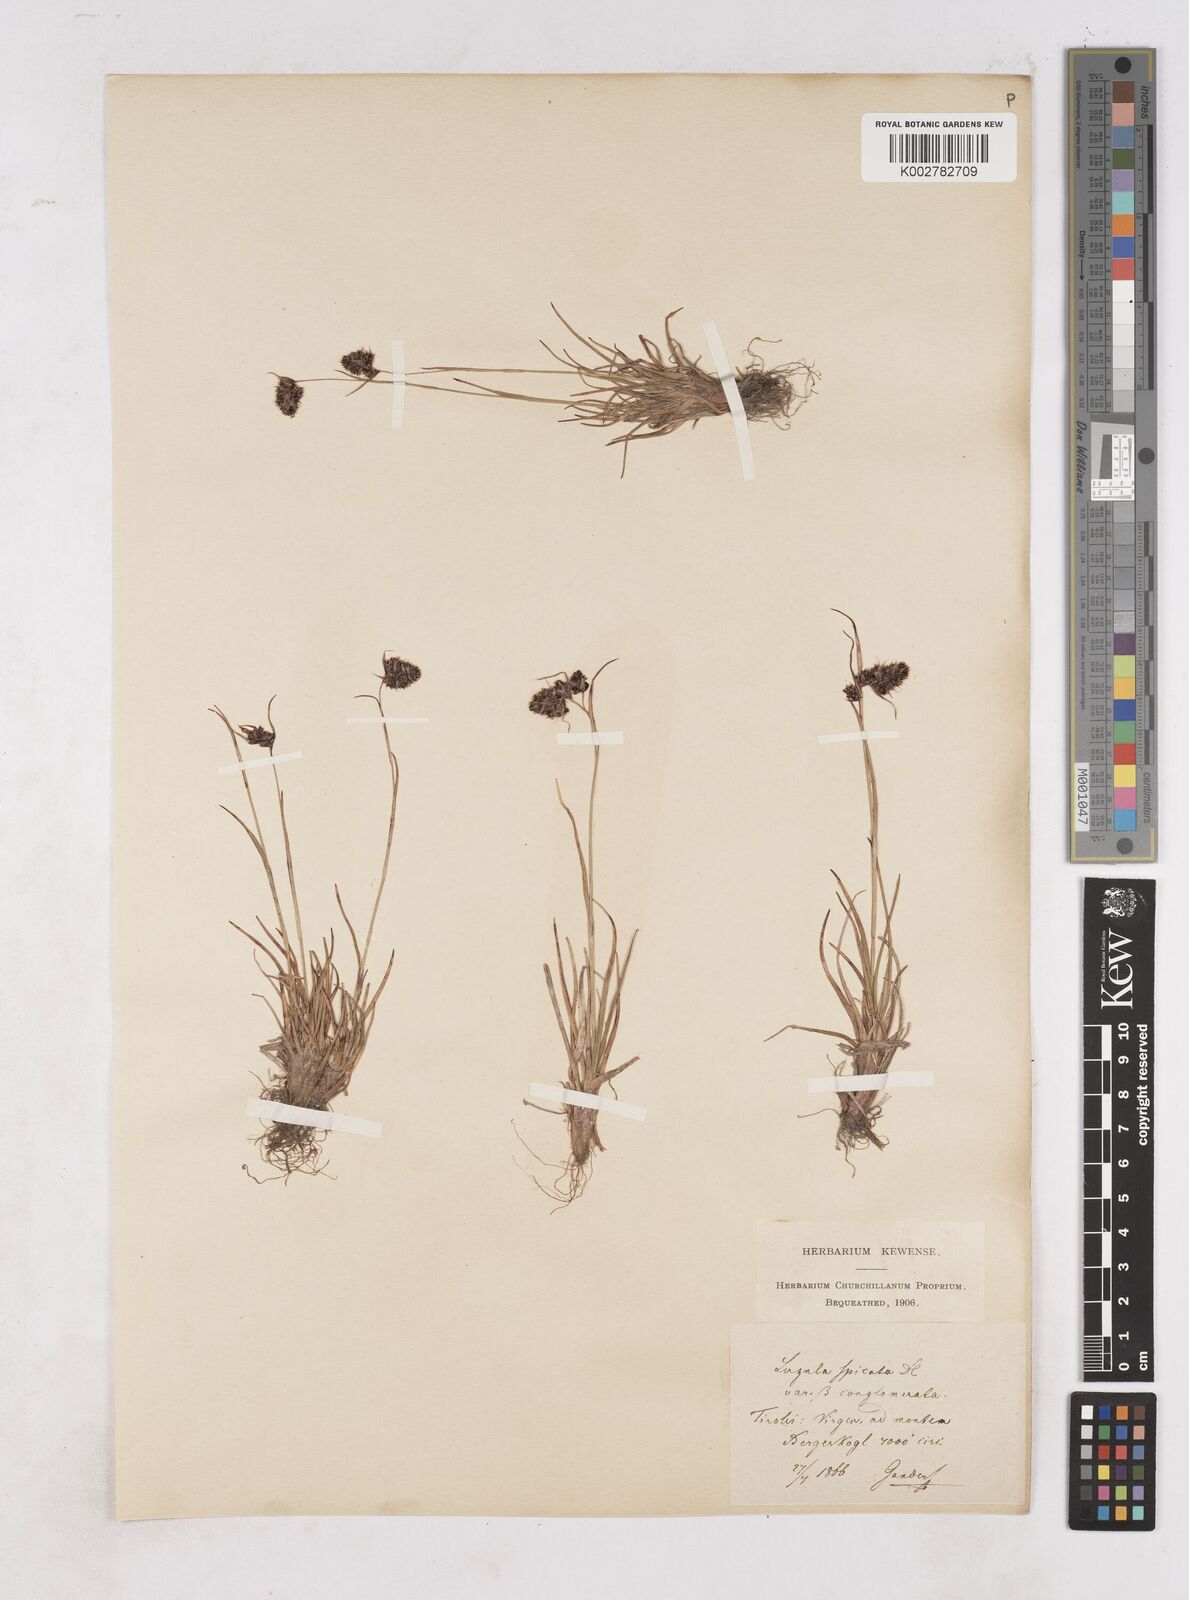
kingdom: Plantae
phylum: Tracheophyta
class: Liliopsida
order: Poales
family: Juncaceae
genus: Luzula
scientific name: Luzula spicata
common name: Spiked wood-rush
